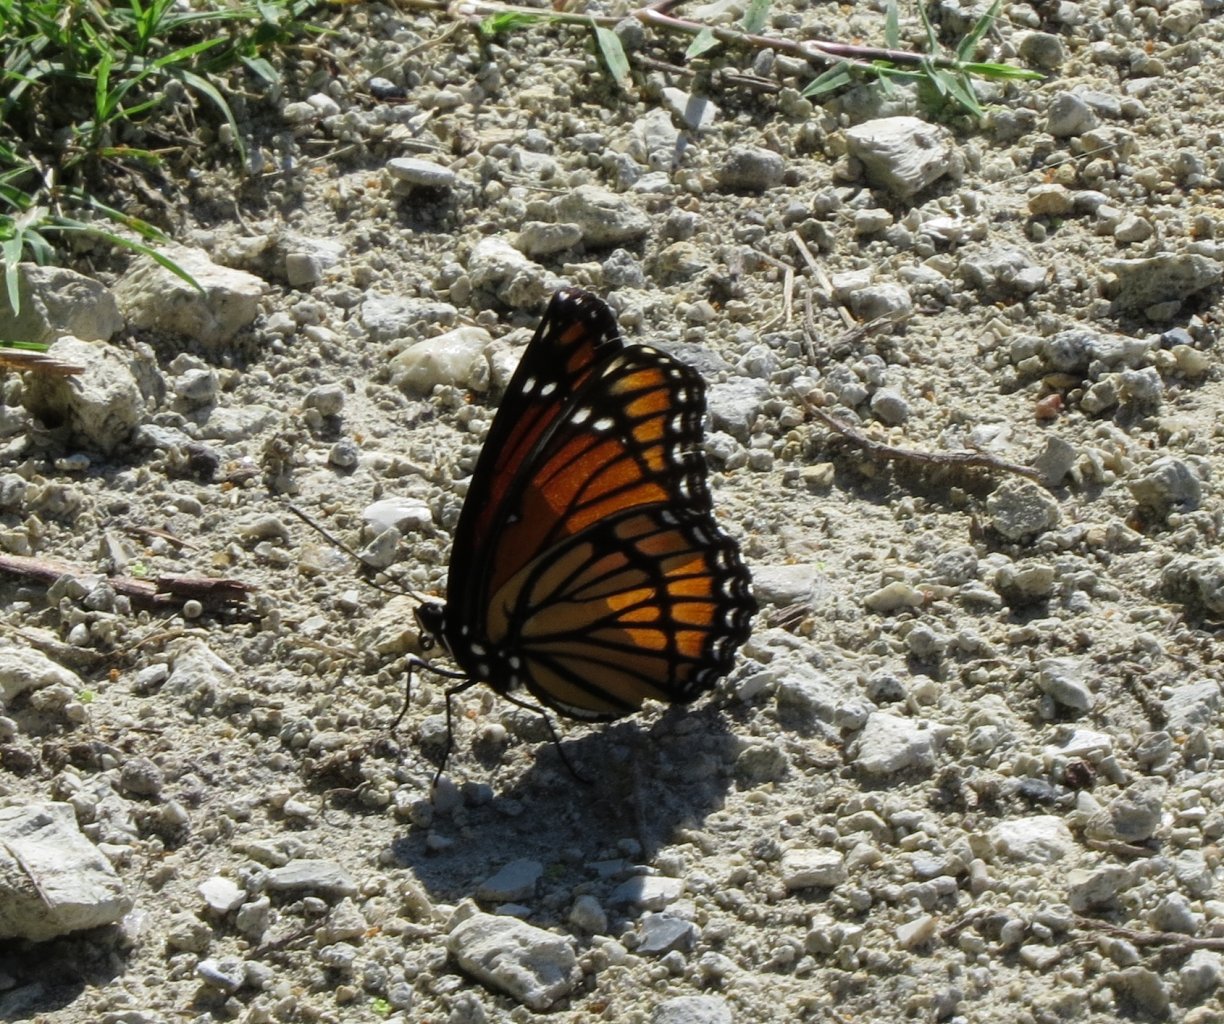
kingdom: Animalia
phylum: Arthropoda
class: Insecta
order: Lepidoptera
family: Nymphalidae
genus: Limenitis
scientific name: Limenitis archippus
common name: Viceroy
